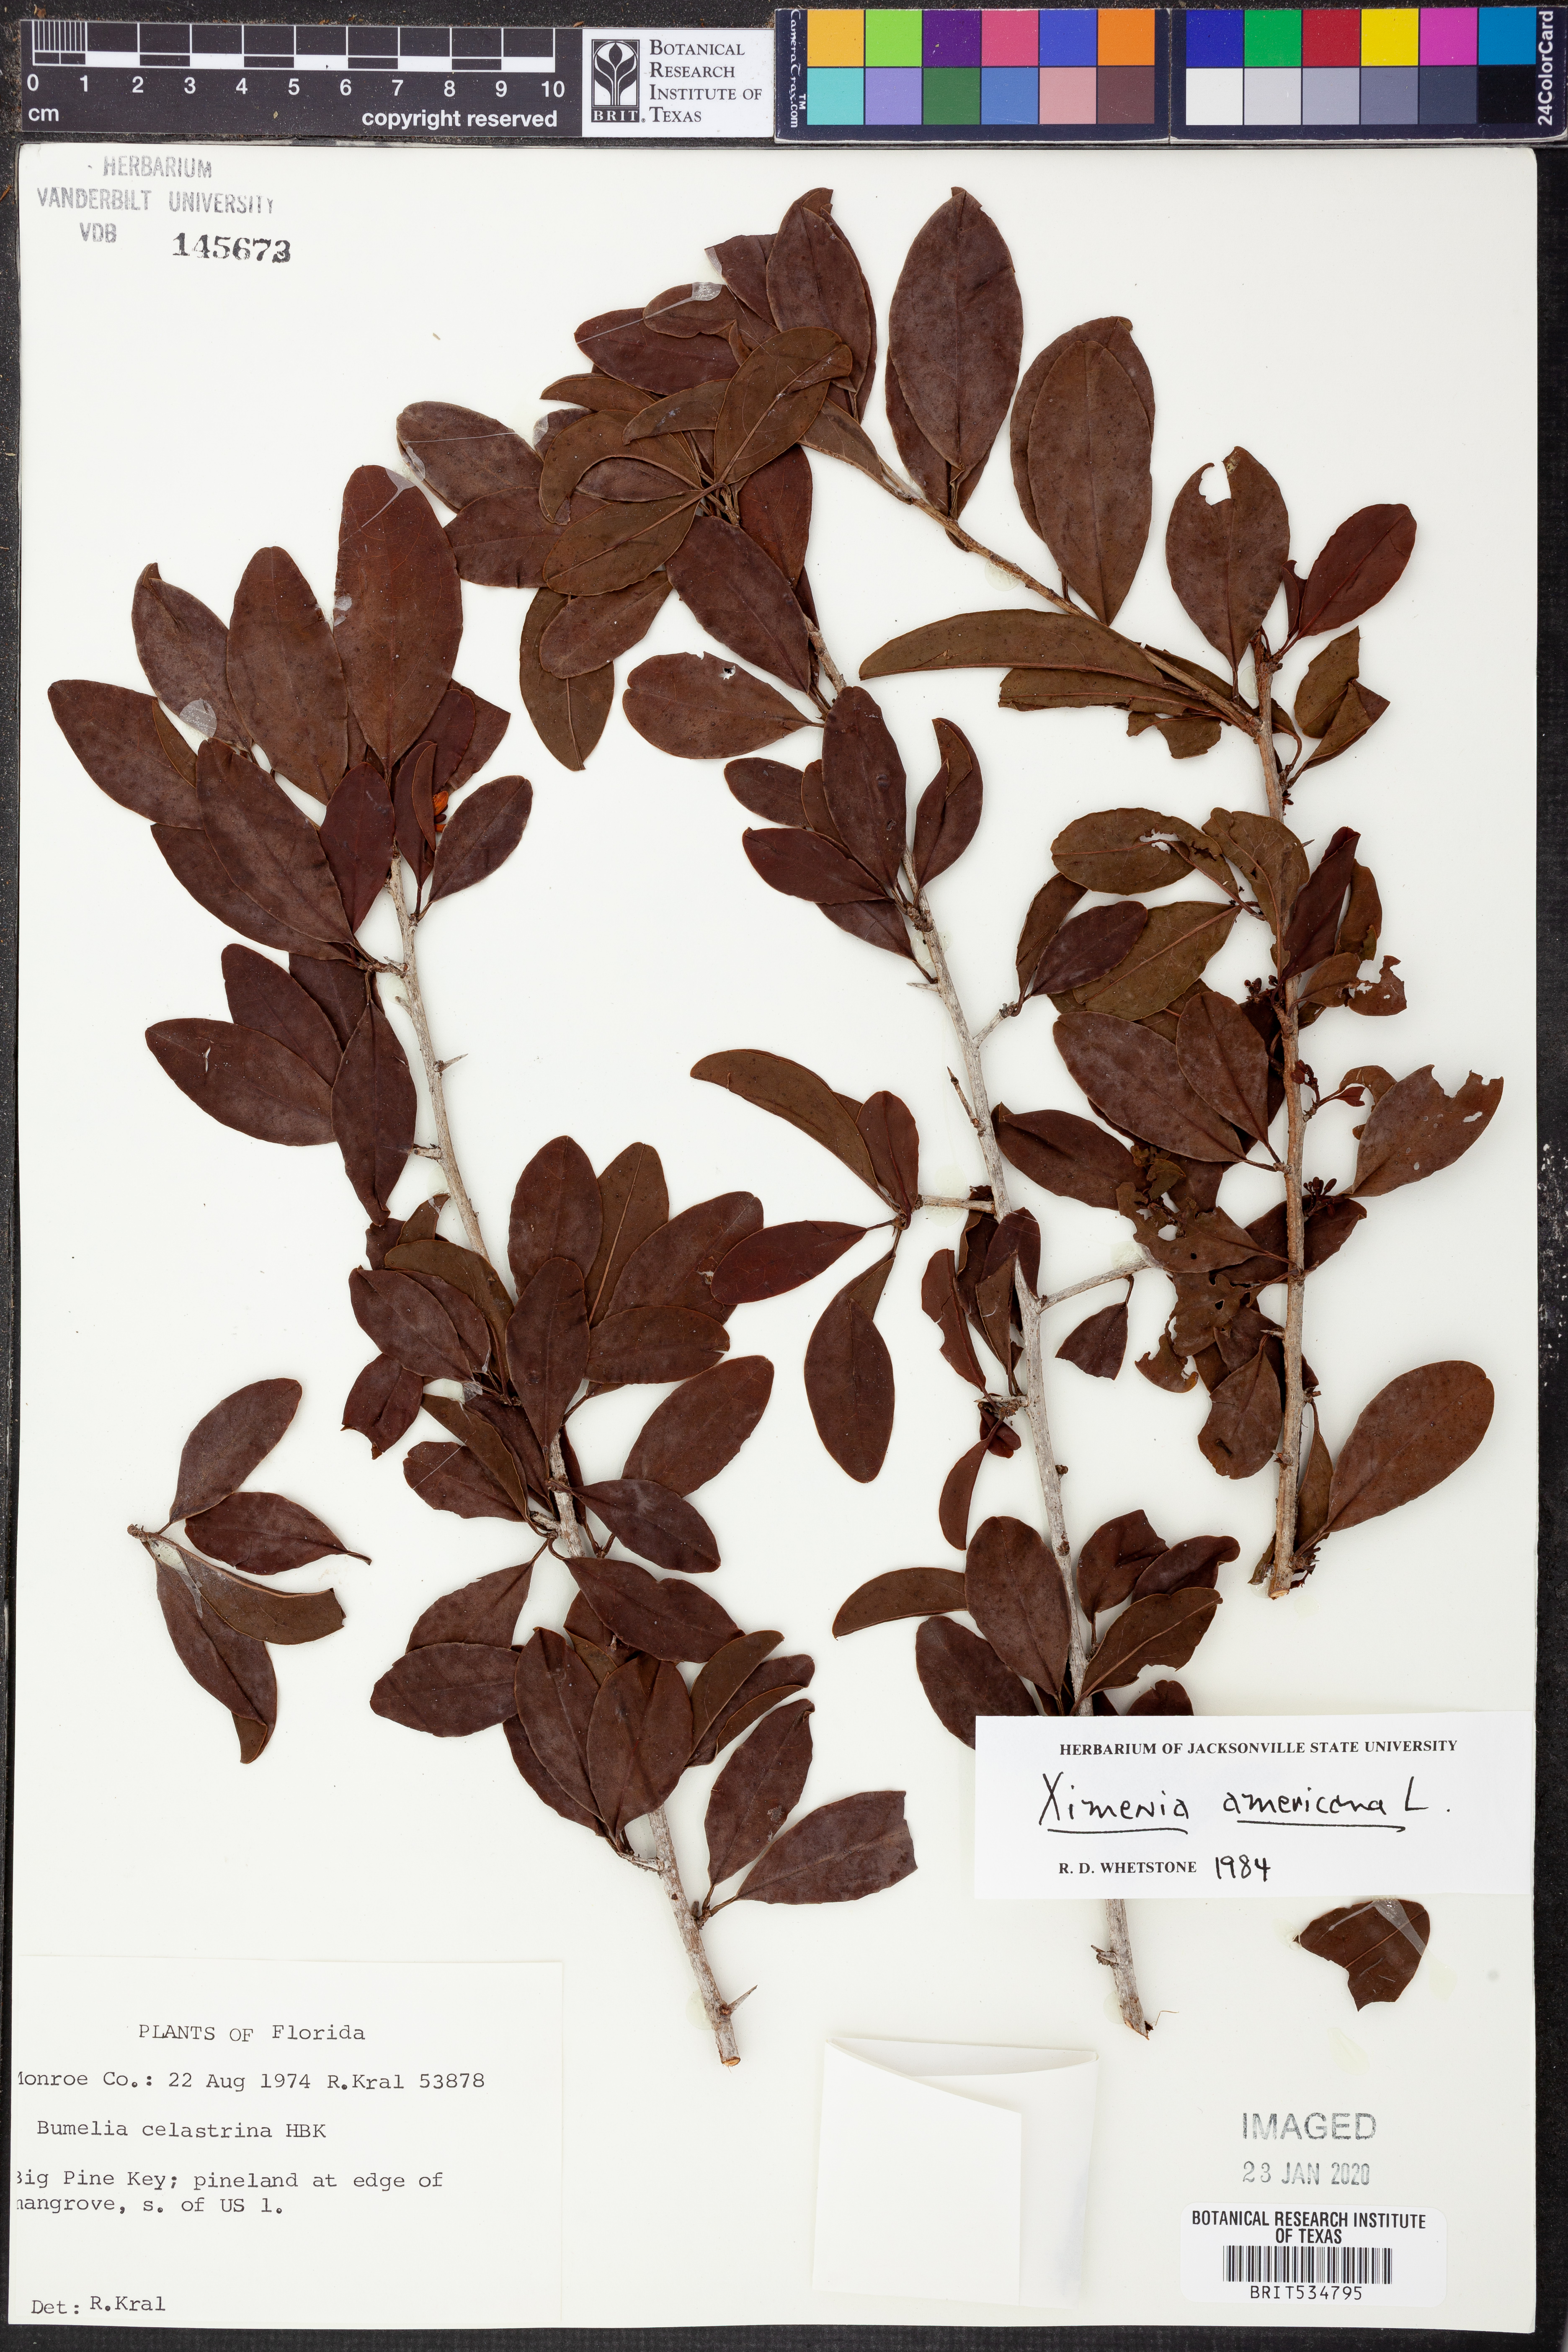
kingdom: Plantae
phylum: Tracheophyta
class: Magnoliopsida
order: Santalales
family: Ximeniaceae
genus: Ximenia
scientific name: Ximenia americana
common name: Tallowwood
